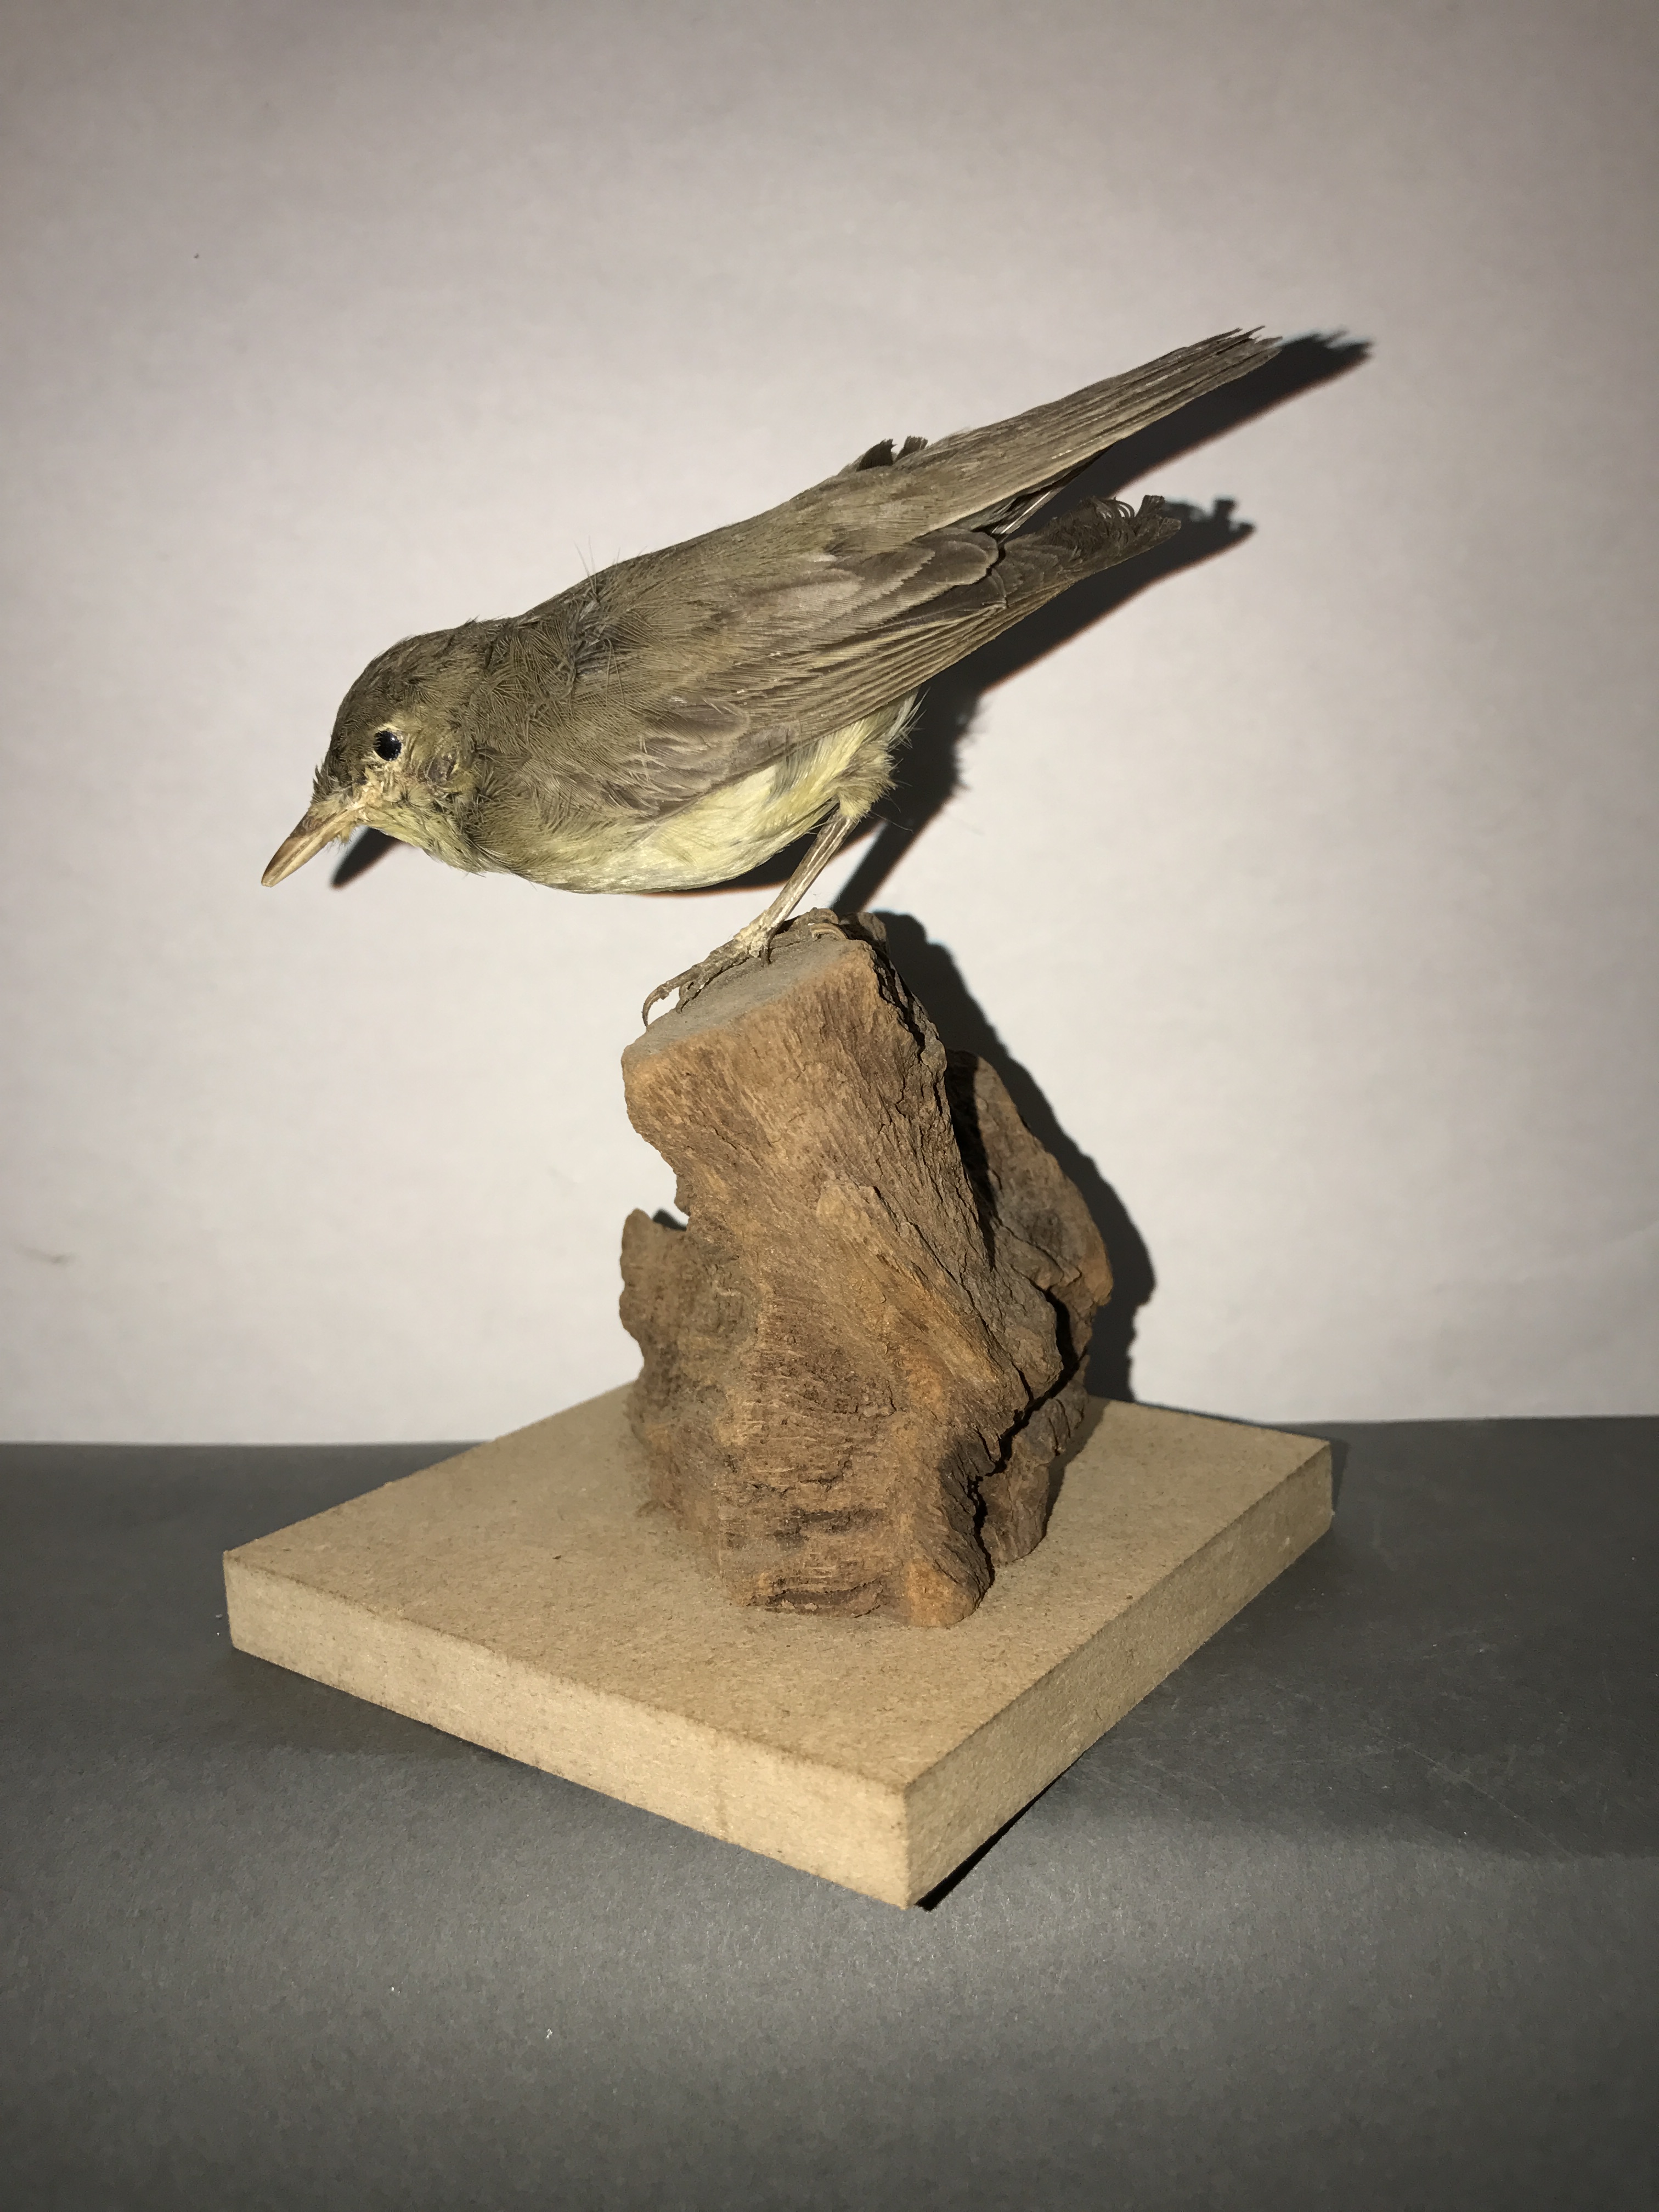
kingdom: Animalia
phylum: Chordata
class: Aves
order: Passeriformes
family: Acrocephalidae
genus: Hippolais
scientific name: Hippolais icterina
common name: Icterine warbler
